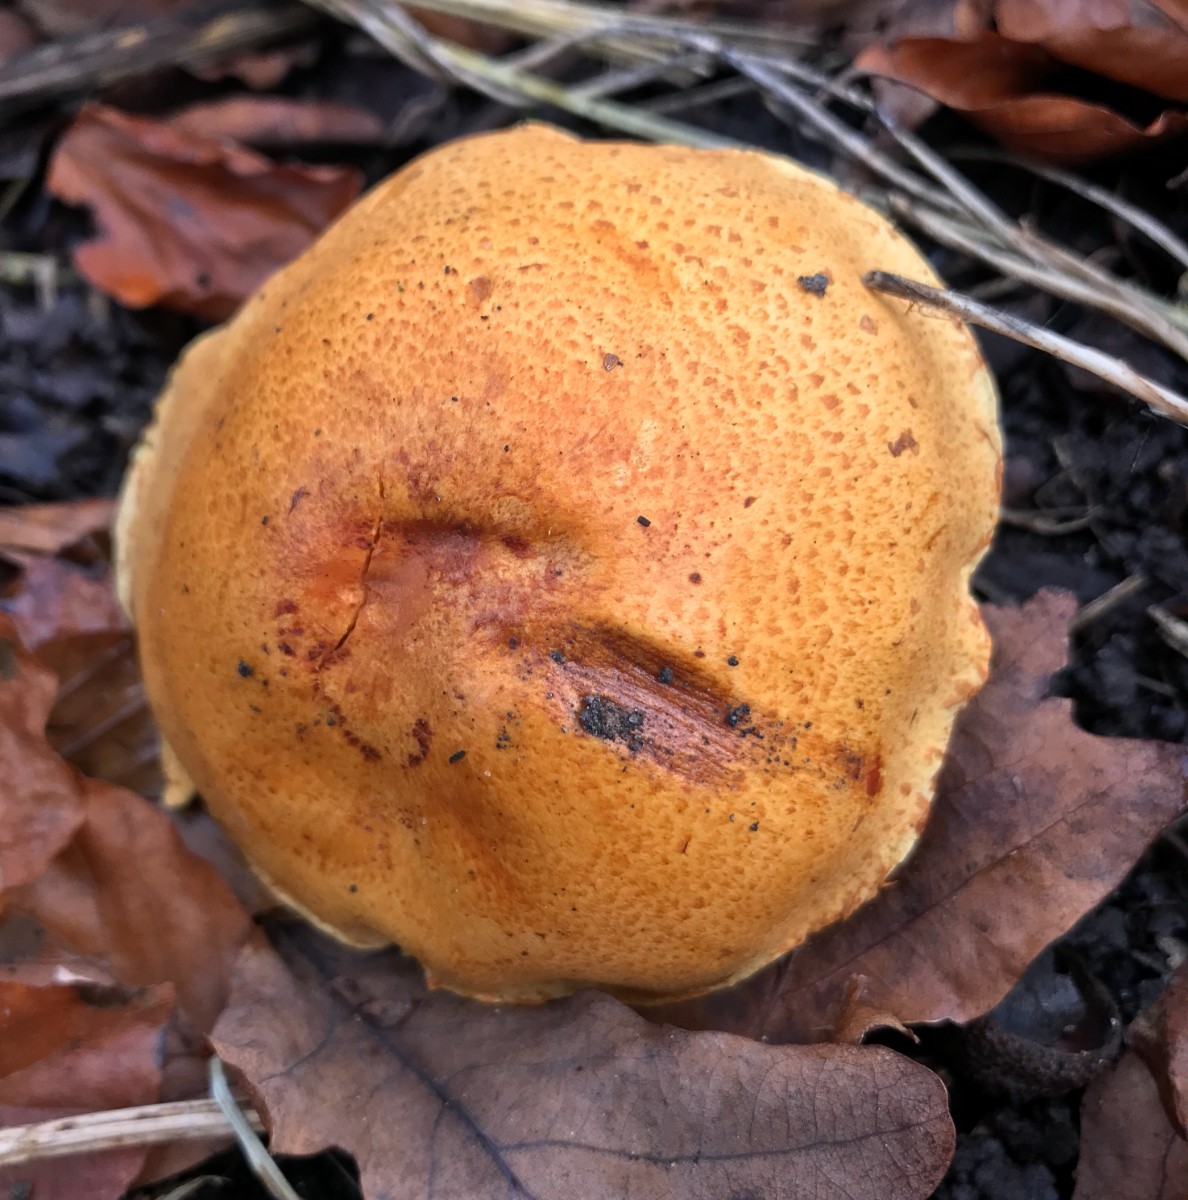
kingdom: Fungi
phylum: Basidiomycota
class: Agaricomycetes
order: Agaricales
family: Hymenogastraceae
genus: Gymnopilus
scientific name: Gymnopilus spectabilis
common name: fibret flammehat
